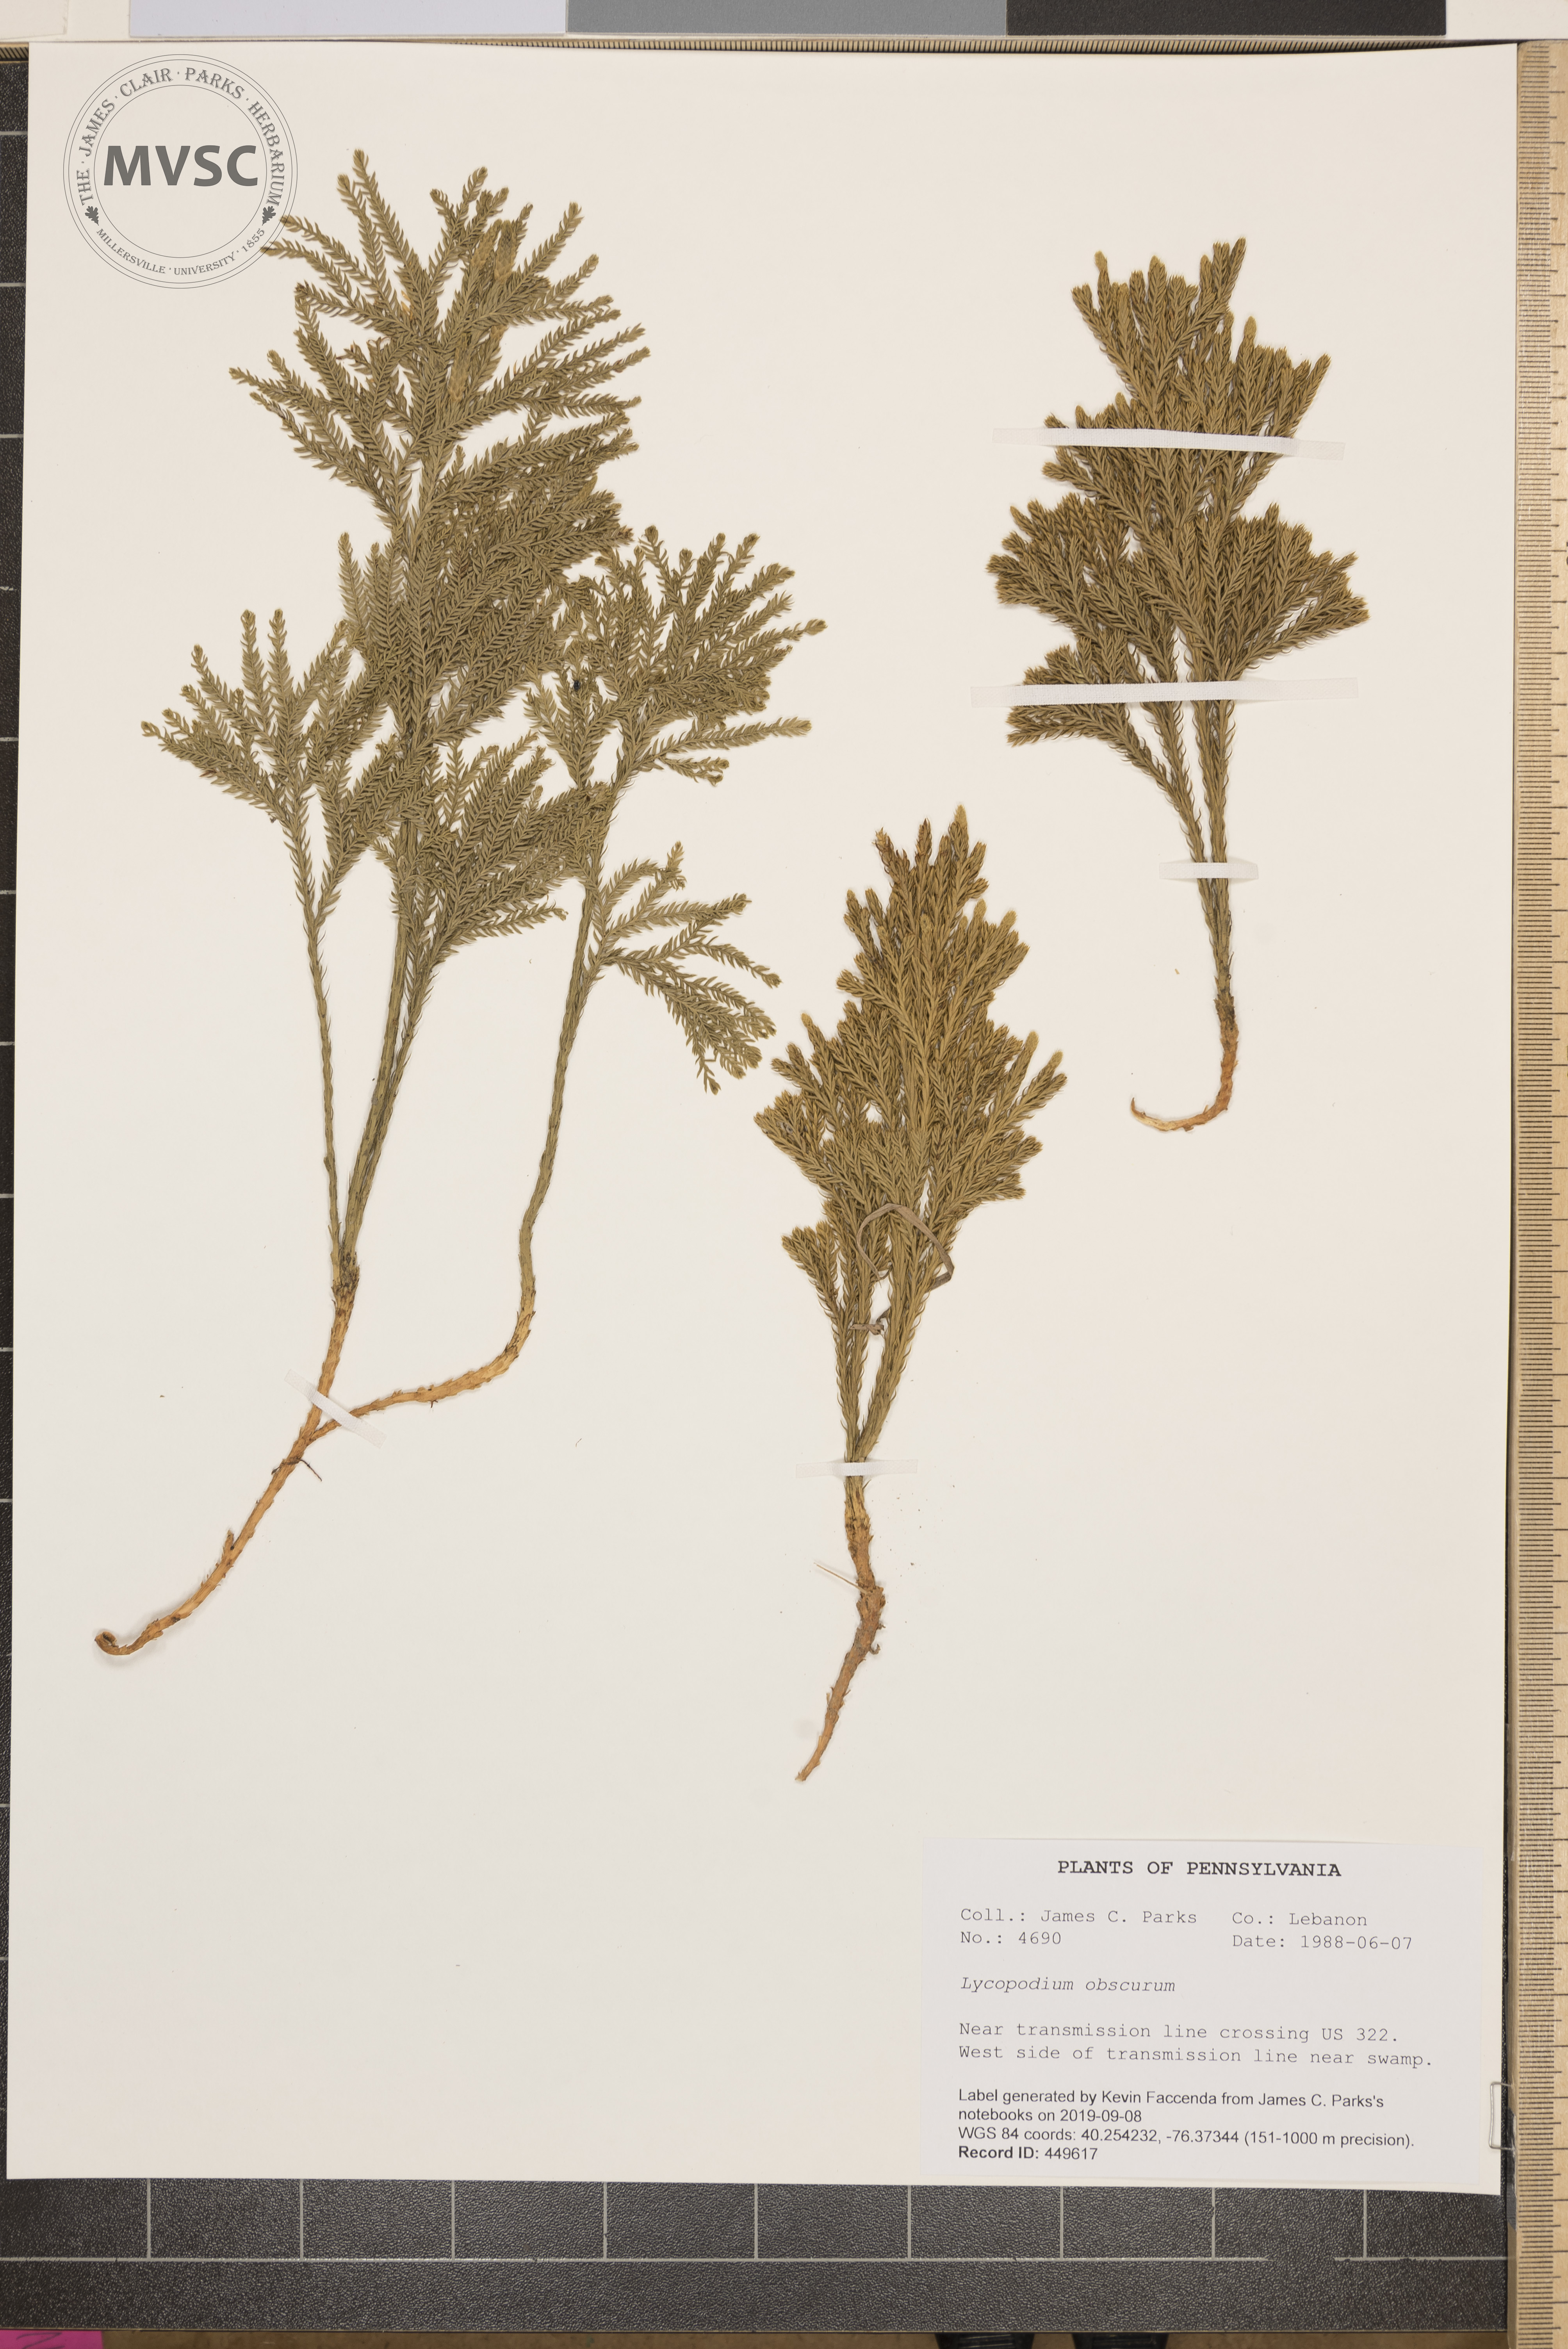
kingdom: Plantae
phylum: Tracheophyta
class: Lycopodiopsida
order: Lycopodiales
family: Lycopodiaceae
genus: Dendrolycopodium
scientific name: Dendrolycopodium obscurum
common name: Common ground-pine
